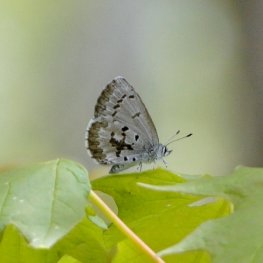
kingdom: Animalia
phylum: Arthropoda
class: Insecta
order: Lepidoptera
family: Lycaenidae
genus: Celastrina
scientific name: Celastrina lucia
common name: Northern Spring Azure
